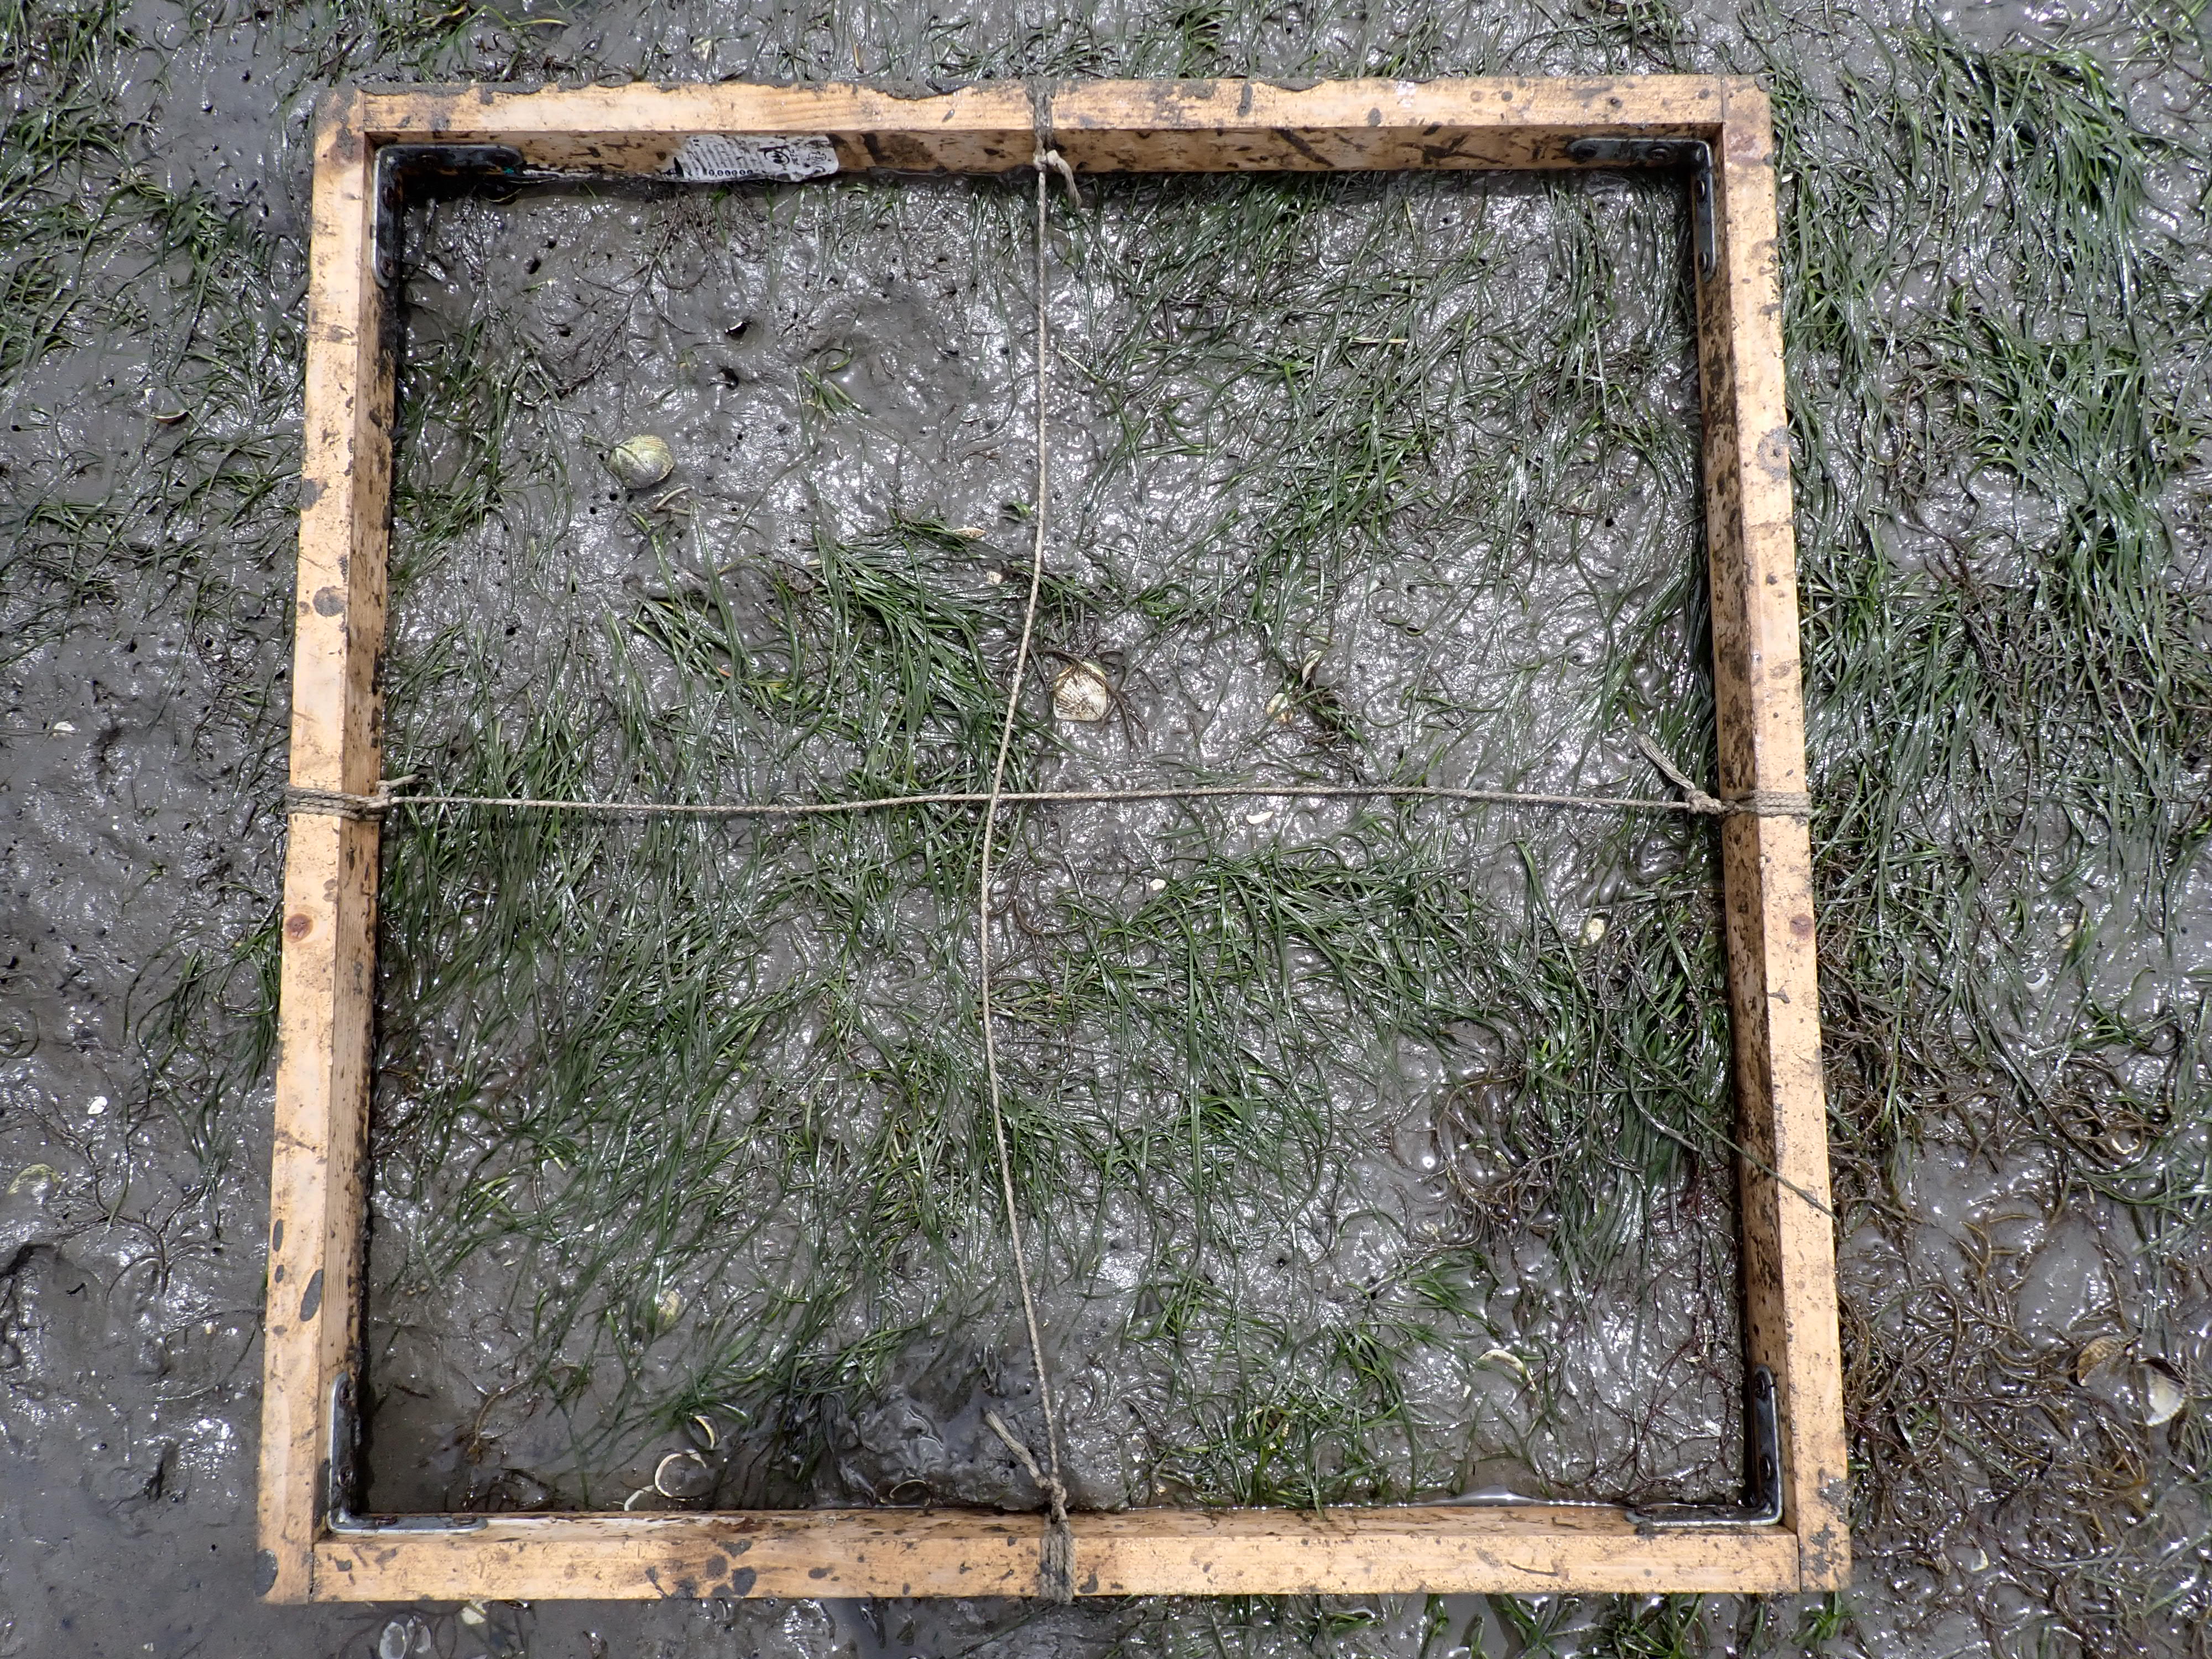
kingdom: Plantae
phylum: Tracheophyta
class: Liliopsida
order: Alismatales
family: Zosteraceae
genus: Zostera
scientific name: Zostera noltii
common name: Dwarf eelgrass
